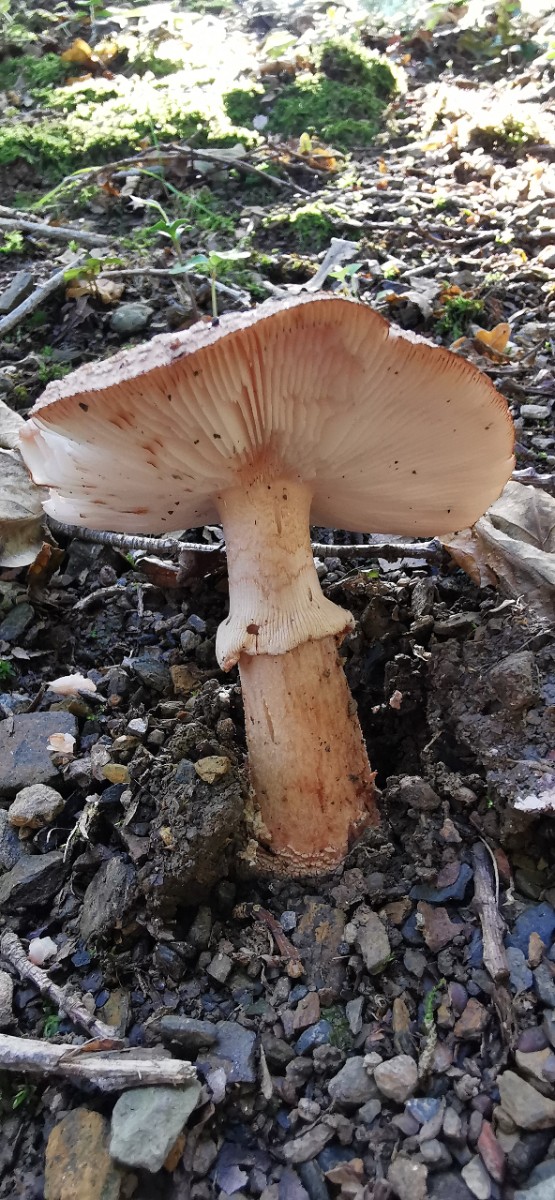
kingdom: Fungi
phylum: Basidiomycota
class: Agaricomycetes
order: Agaricales
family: Amanitaceae
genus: Amanita
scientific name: Amanita rubescens
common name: rødmende fluesvamp
